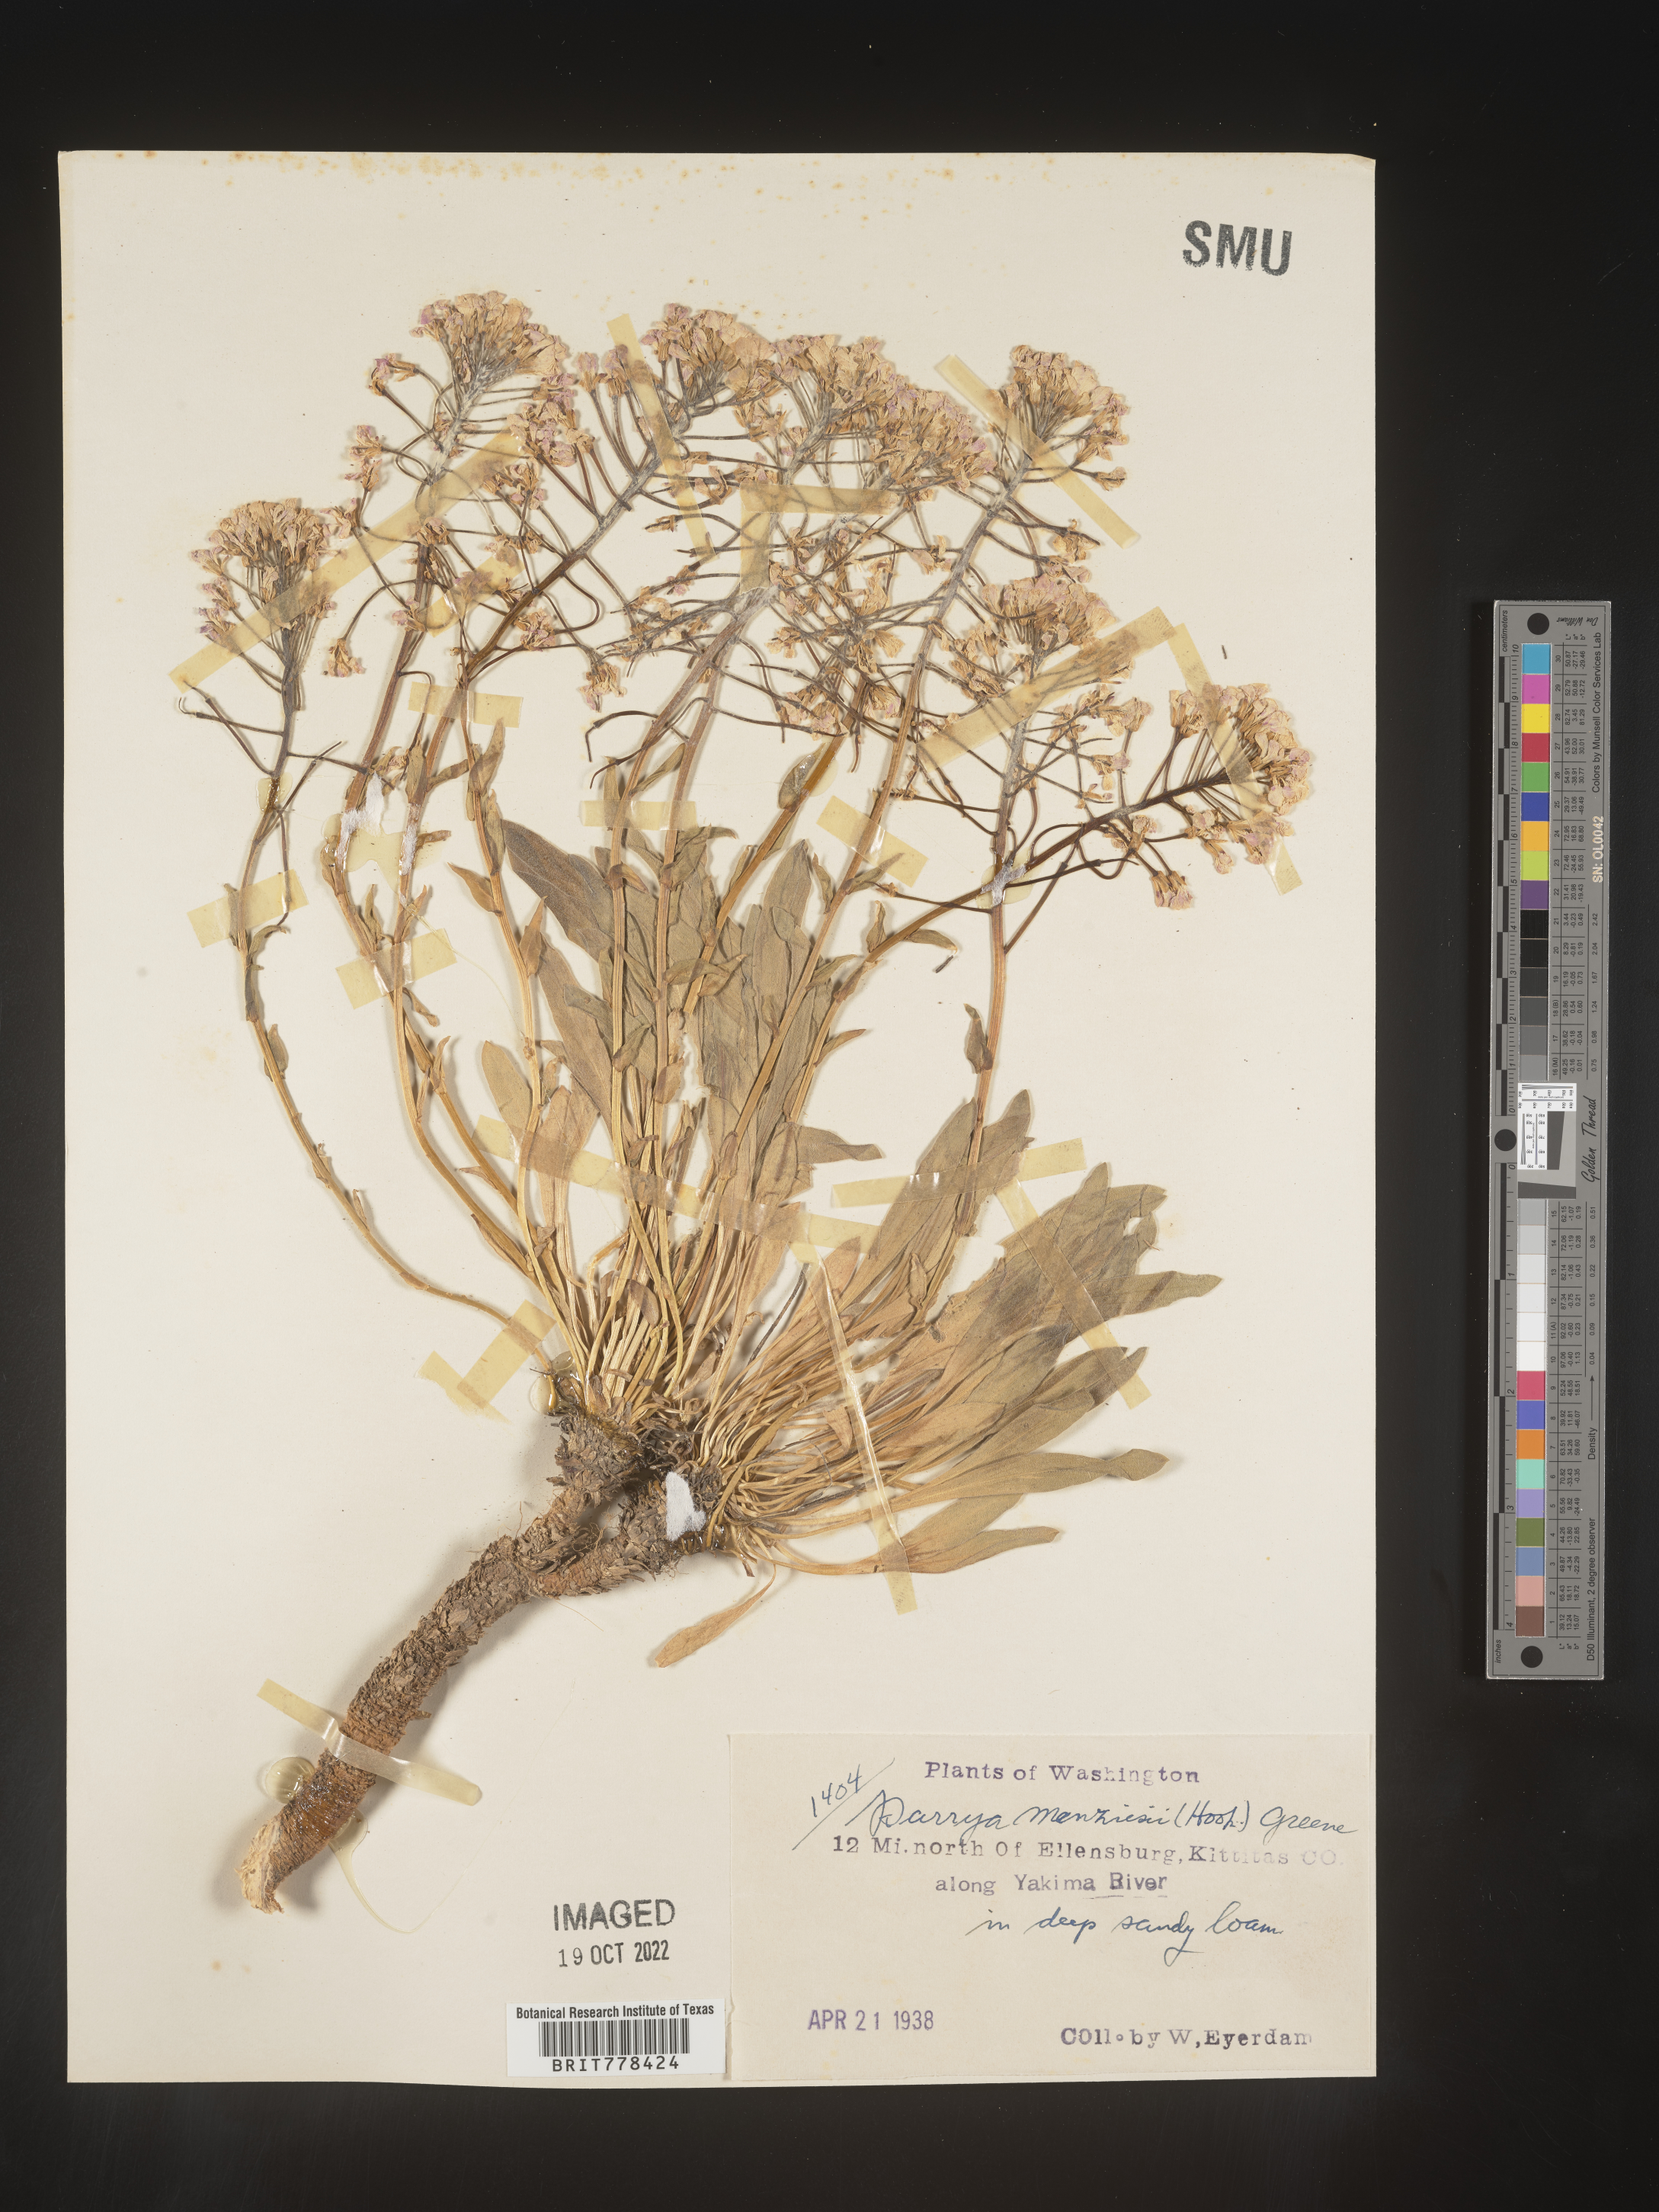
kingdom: Plantae
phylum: Tracheophyta
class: Magnoliopsida
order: Brassicales
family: Brassicaceae
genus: Parrya
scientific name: Parrya
